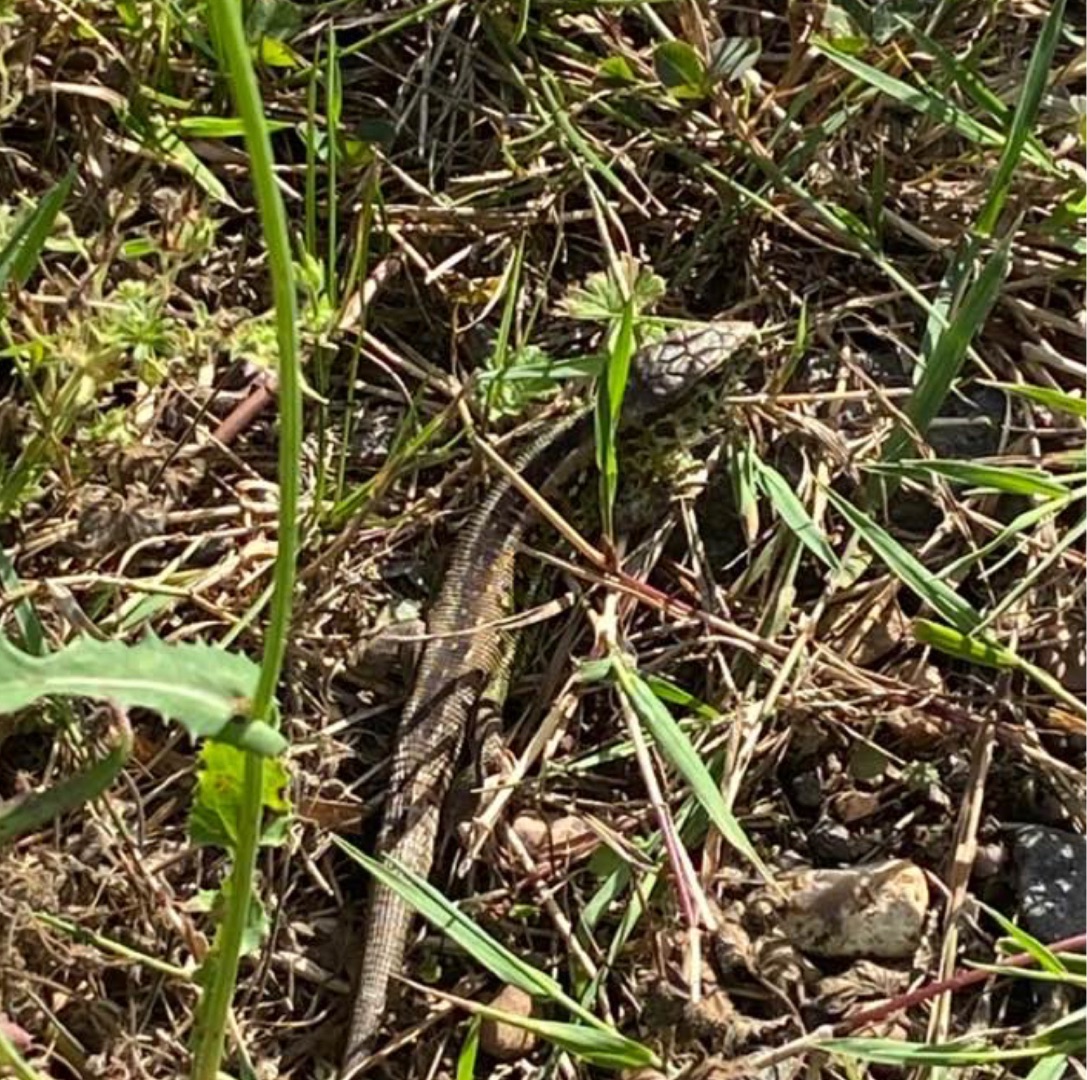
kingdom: Animalia
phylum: Chordata
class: Squamata
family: Lacertidae
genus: Lacerta
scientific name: Lacerta agilis
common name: Markfirben
